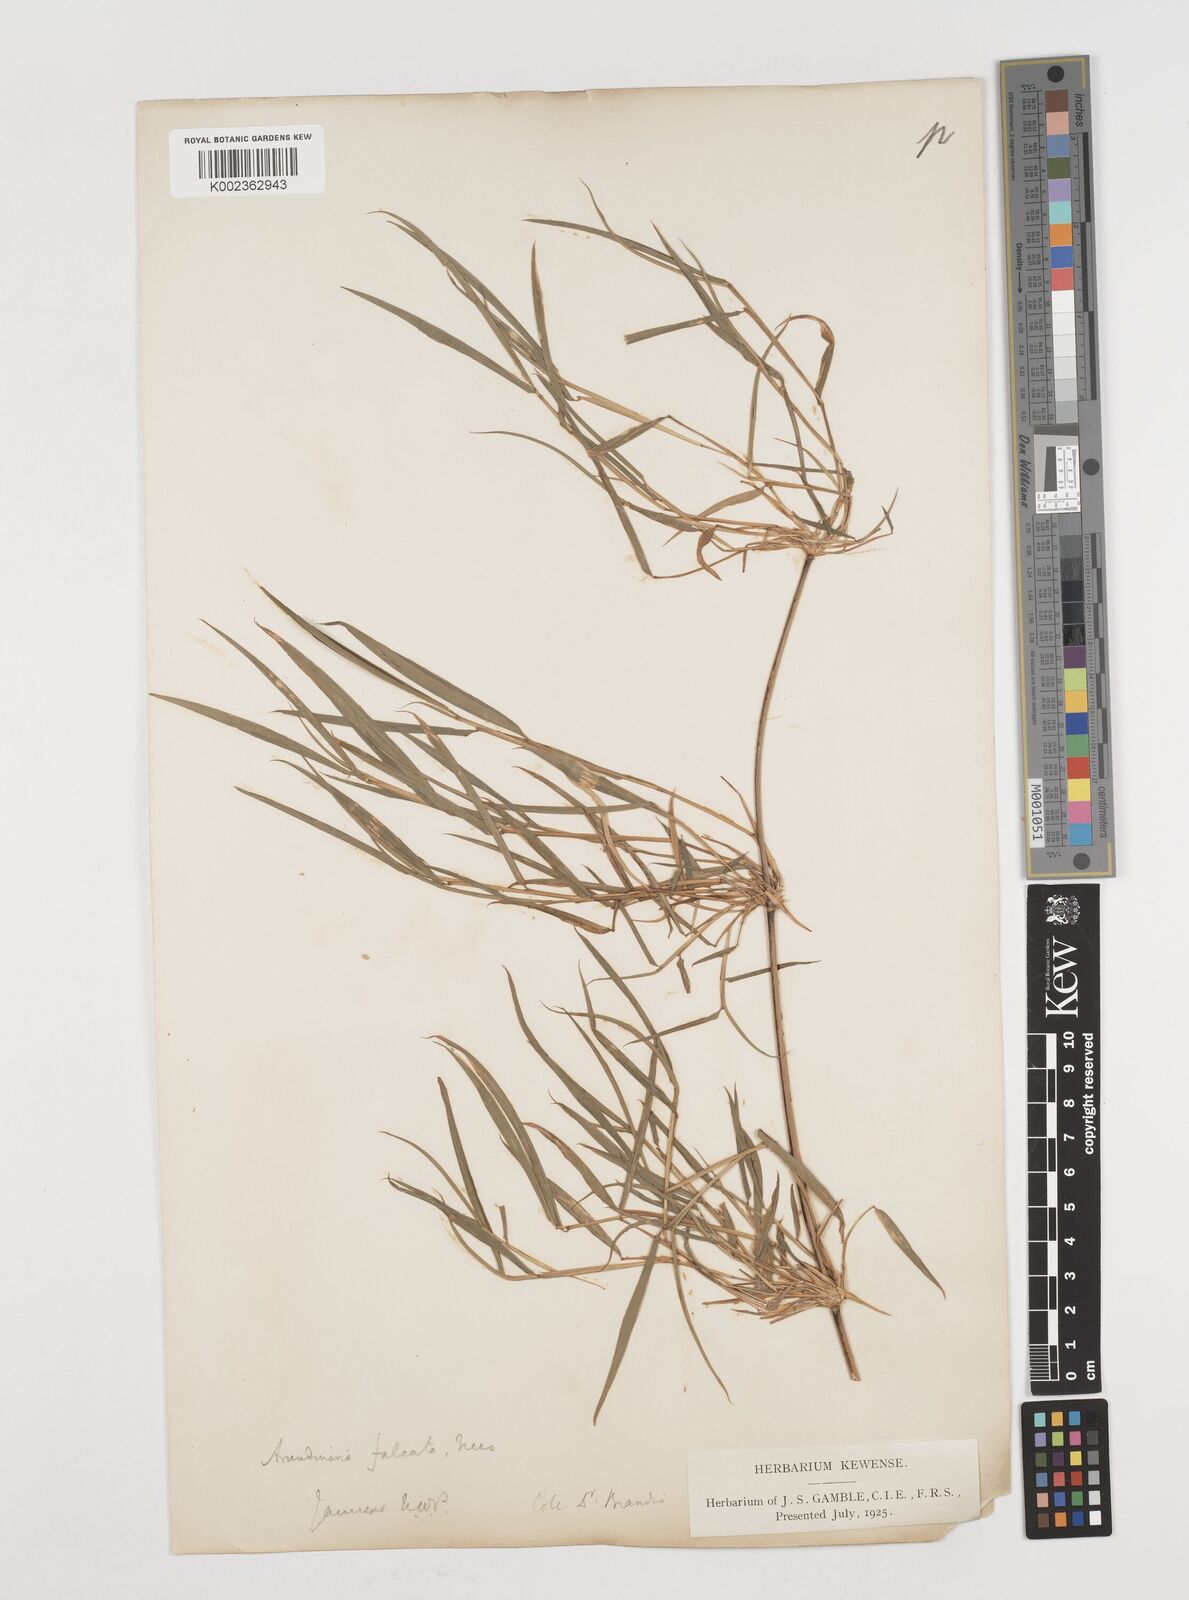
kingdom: Plantae
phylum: Tracheophyta
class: Liliopsida
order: Poales
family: Poaceae
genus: Drepanostachyum
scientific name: Drepanostachyum falcatum
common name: Himalayan bamboo
